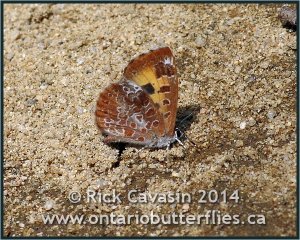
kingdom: Animalia
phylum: Arthropoda
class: Insecta
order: Lepidoptera
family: Lycaenidae
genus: Feniseca
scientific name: Feniseca tarquinius
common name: Harvester
